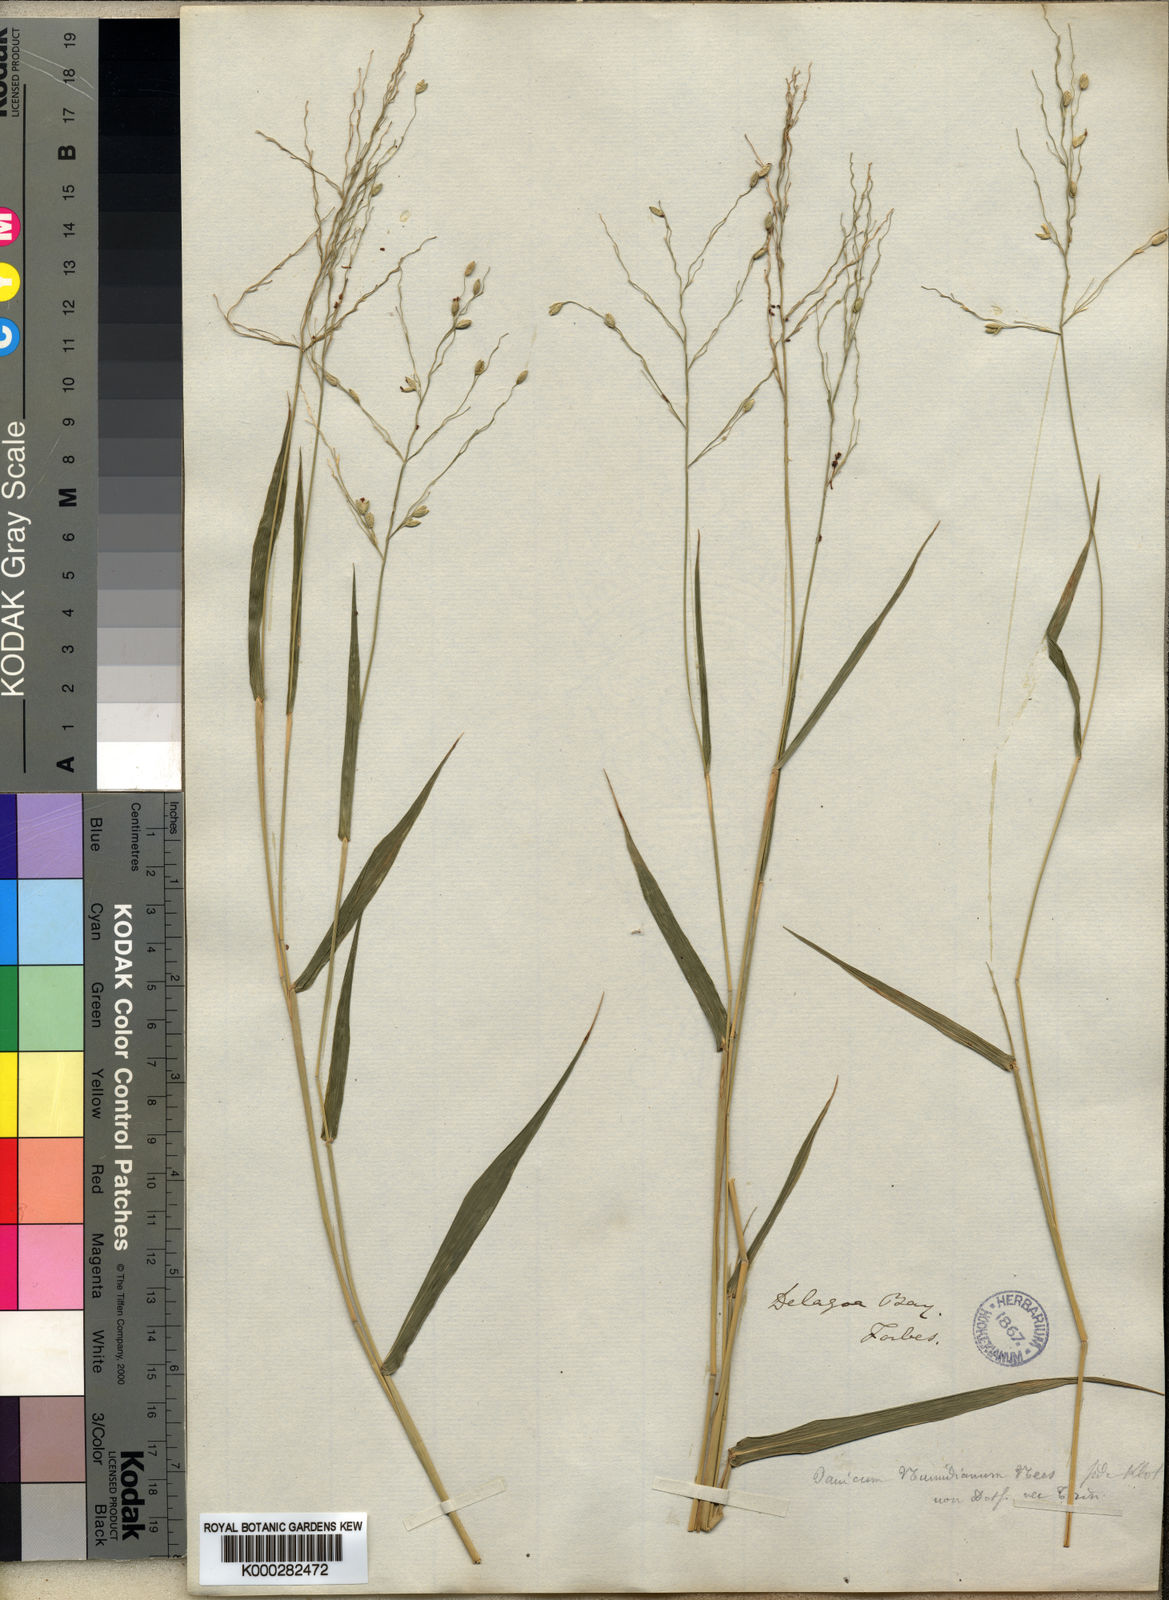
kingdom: Plantae
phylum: Tracheophyta
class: Liliopsida
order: Poales
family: Poaceae
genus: Panicum
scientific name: Panicum deustum
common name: Reed panicum
